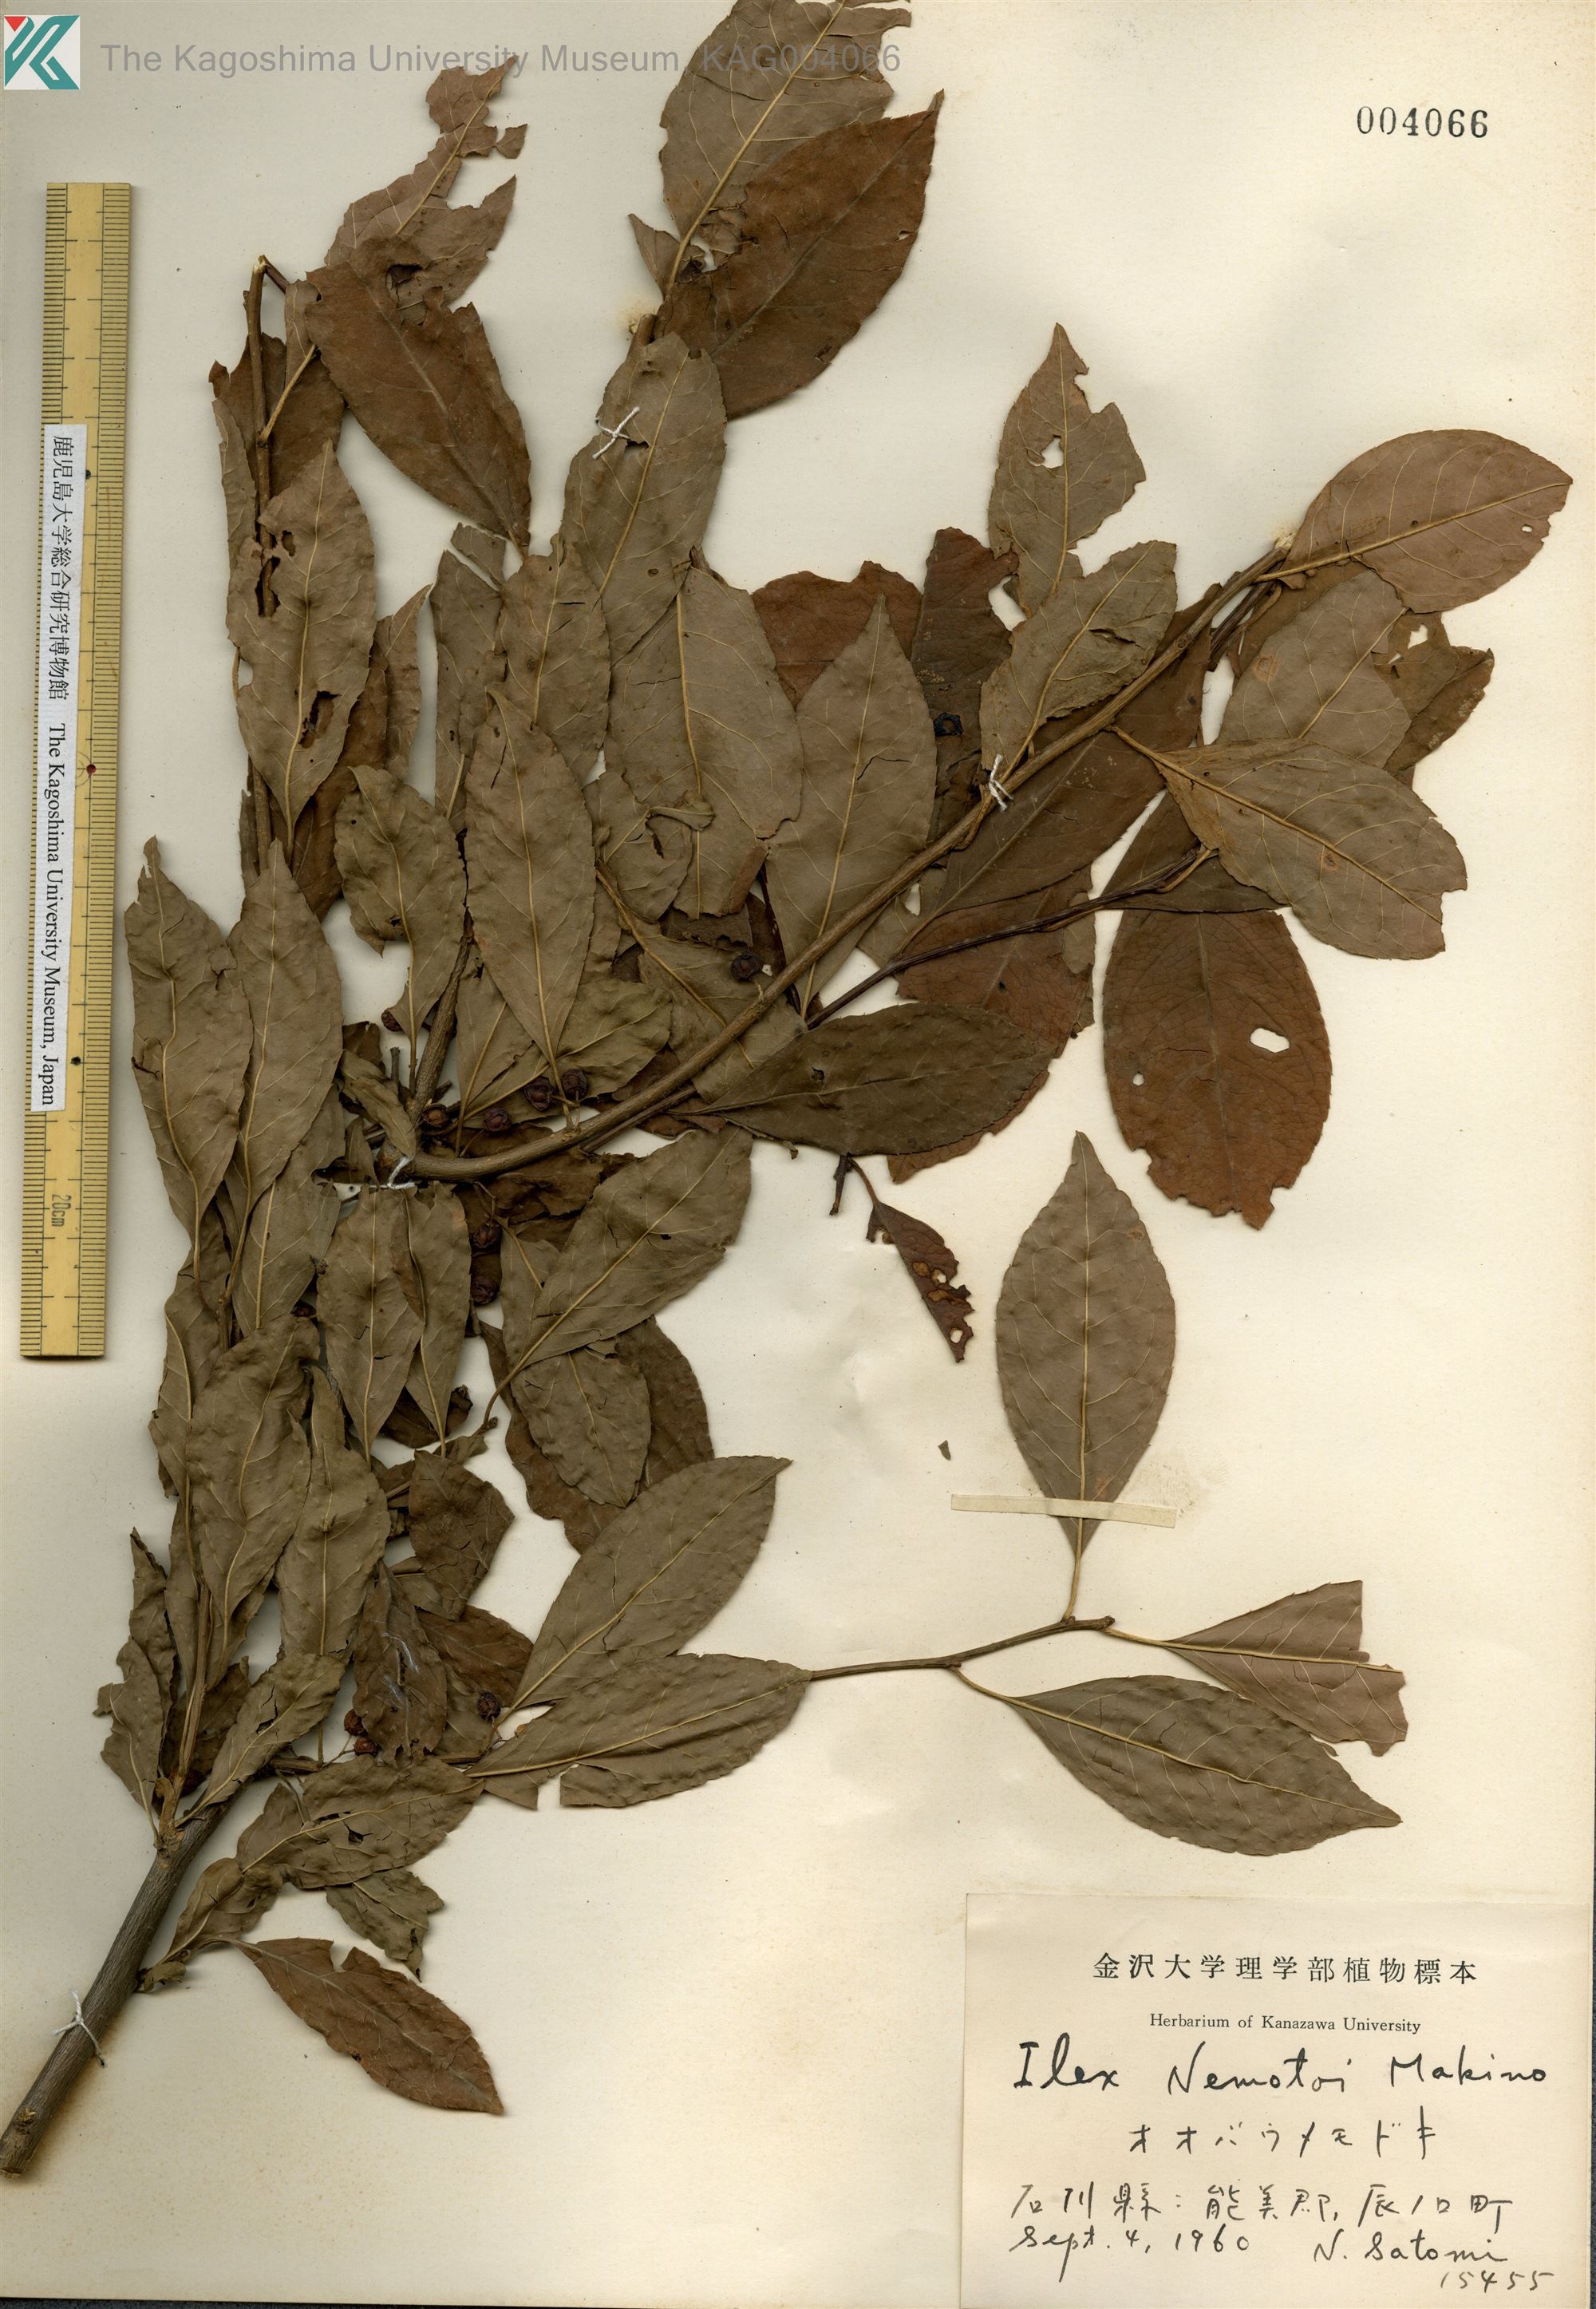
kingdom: Plantae
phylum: Tracheophyta
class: Magnoliopsida
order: Aquifoliales
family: Aquifoliaceae
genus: Ilex
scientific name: Ilex nipponica
